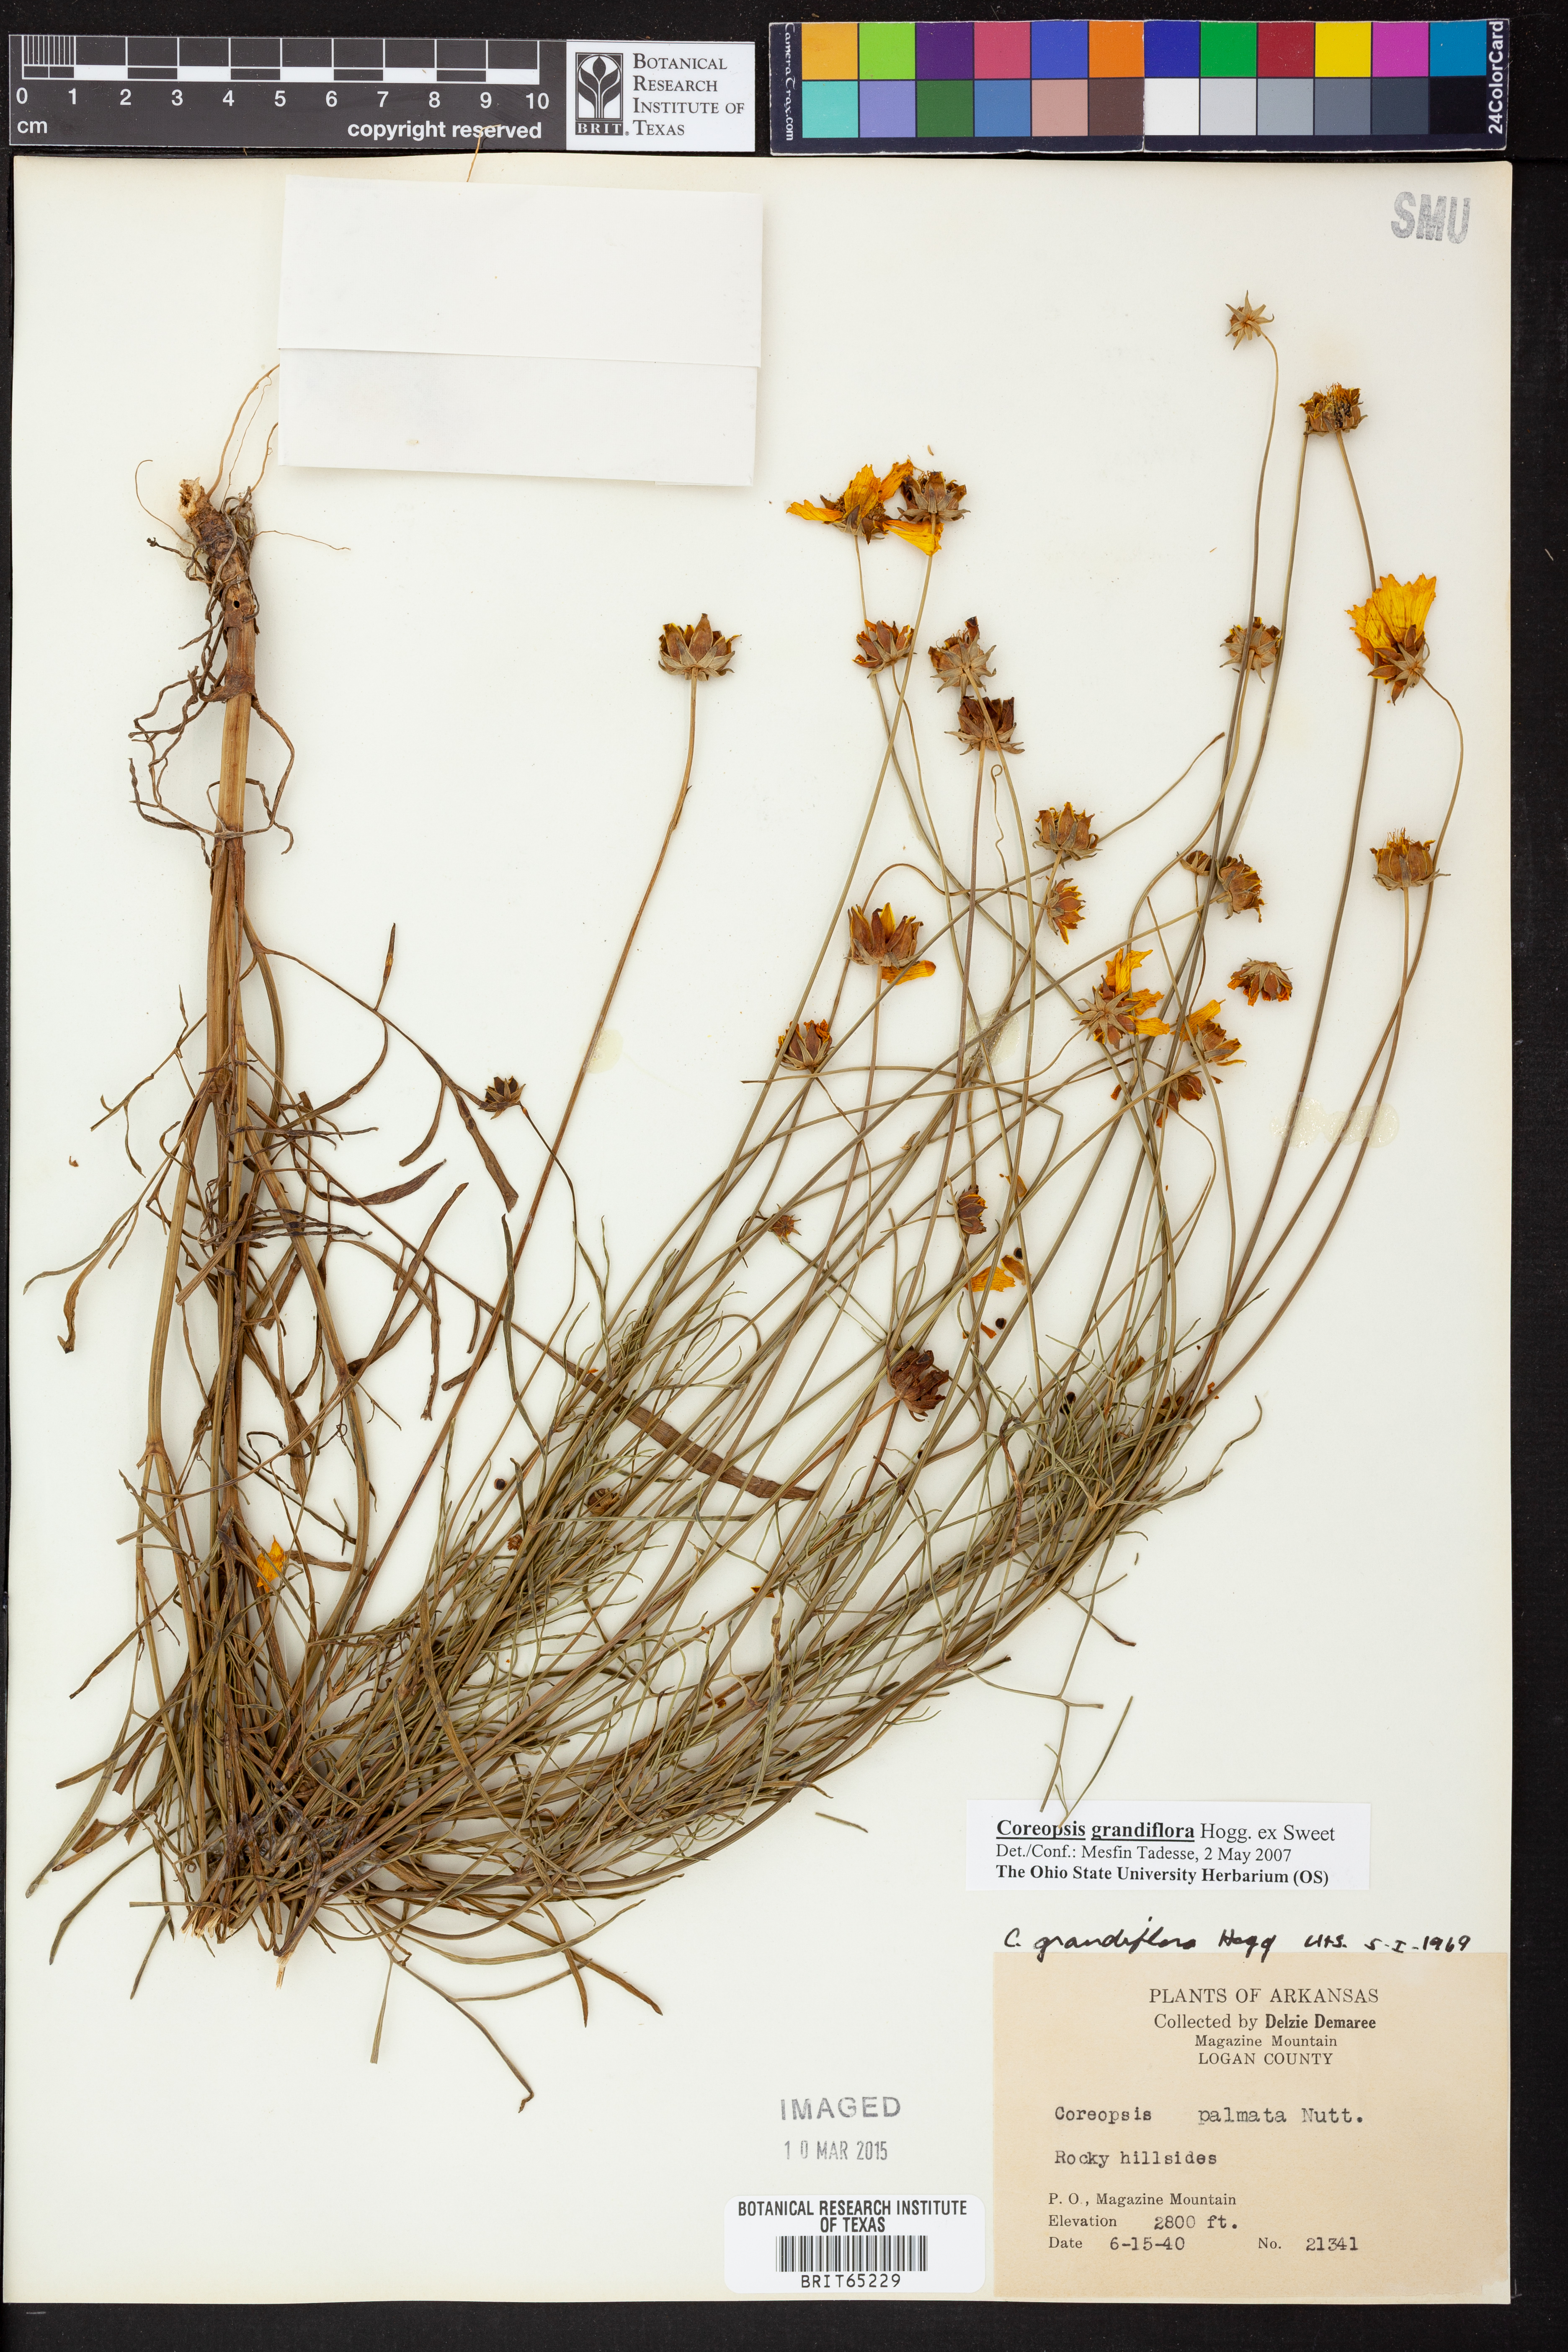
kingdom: Plantae
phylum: Tracheophyta
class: Magnoliopsida
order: Asterales
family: Asteraceae
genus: Coreopsis
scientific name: Coreopsis grandiflora
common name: Large-flowered tickseed
